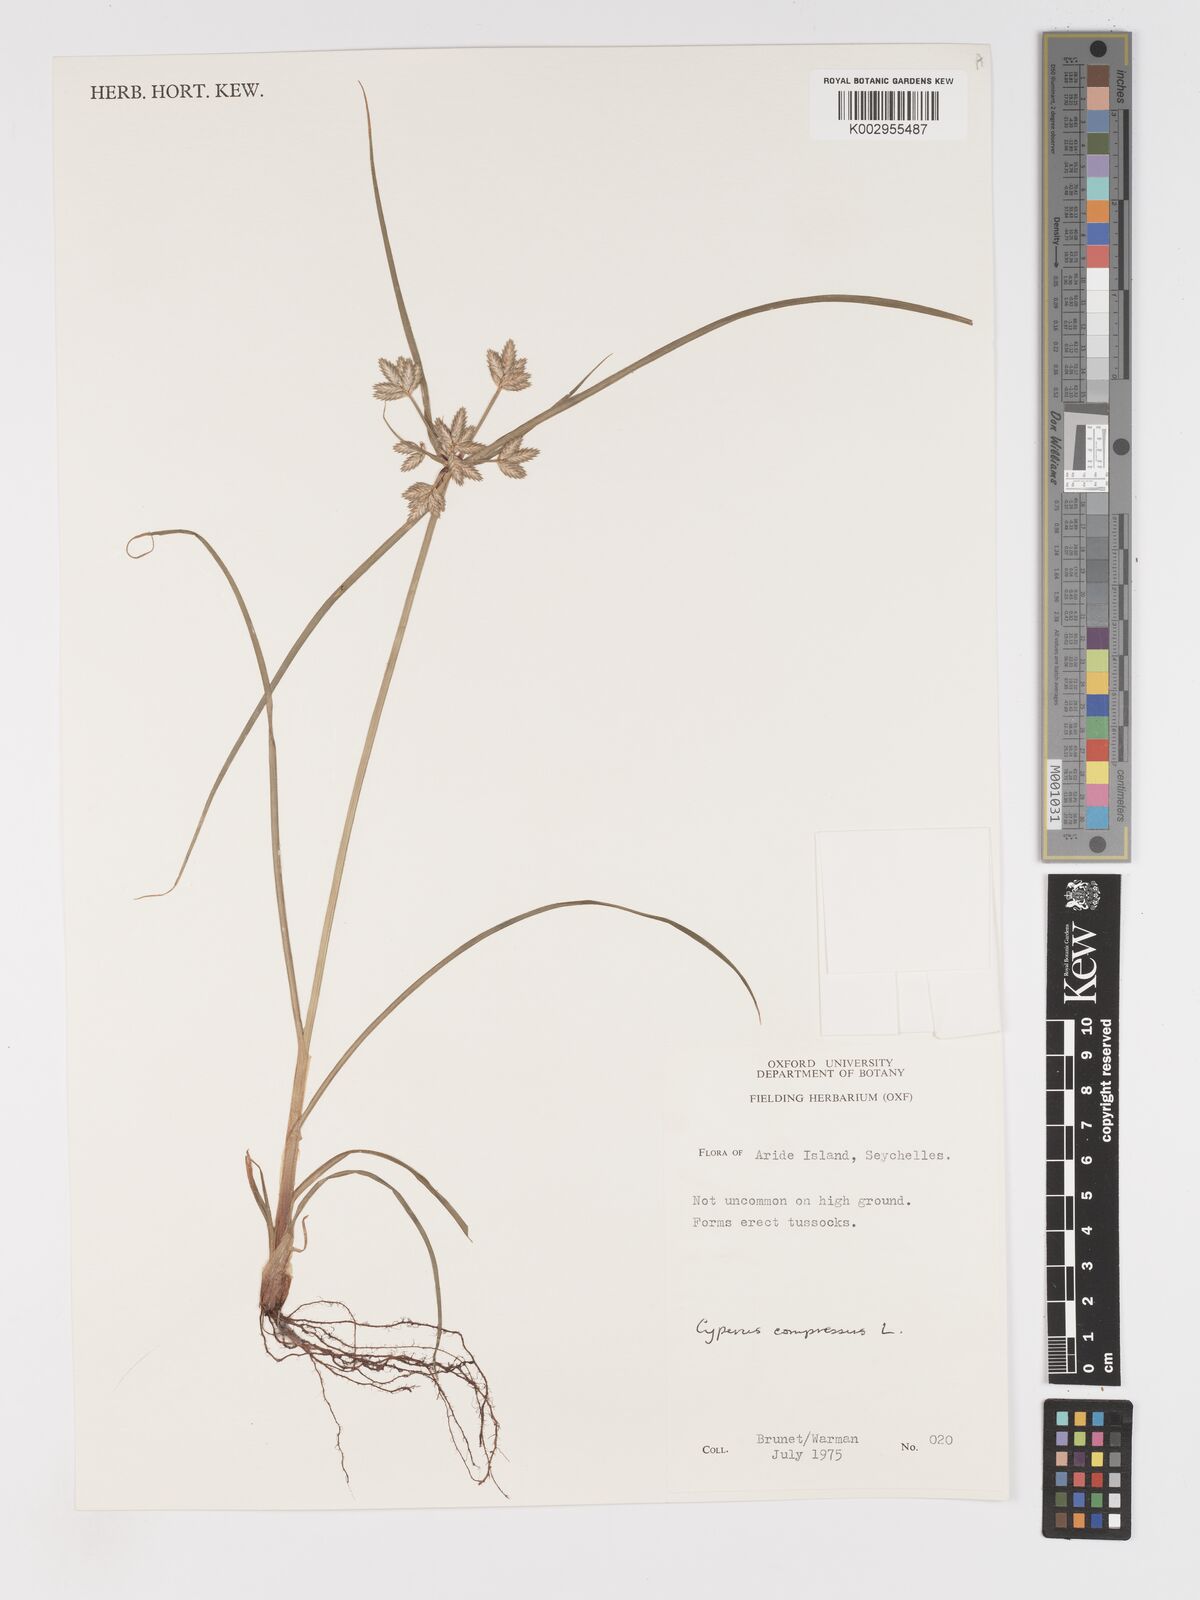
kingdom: Plantae
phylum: Tracheophyta
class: Liliopsida
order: Poales
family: Cyperaceae
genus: Cyperus
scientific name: Cyperus compressus
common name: Poorland flatsedge
